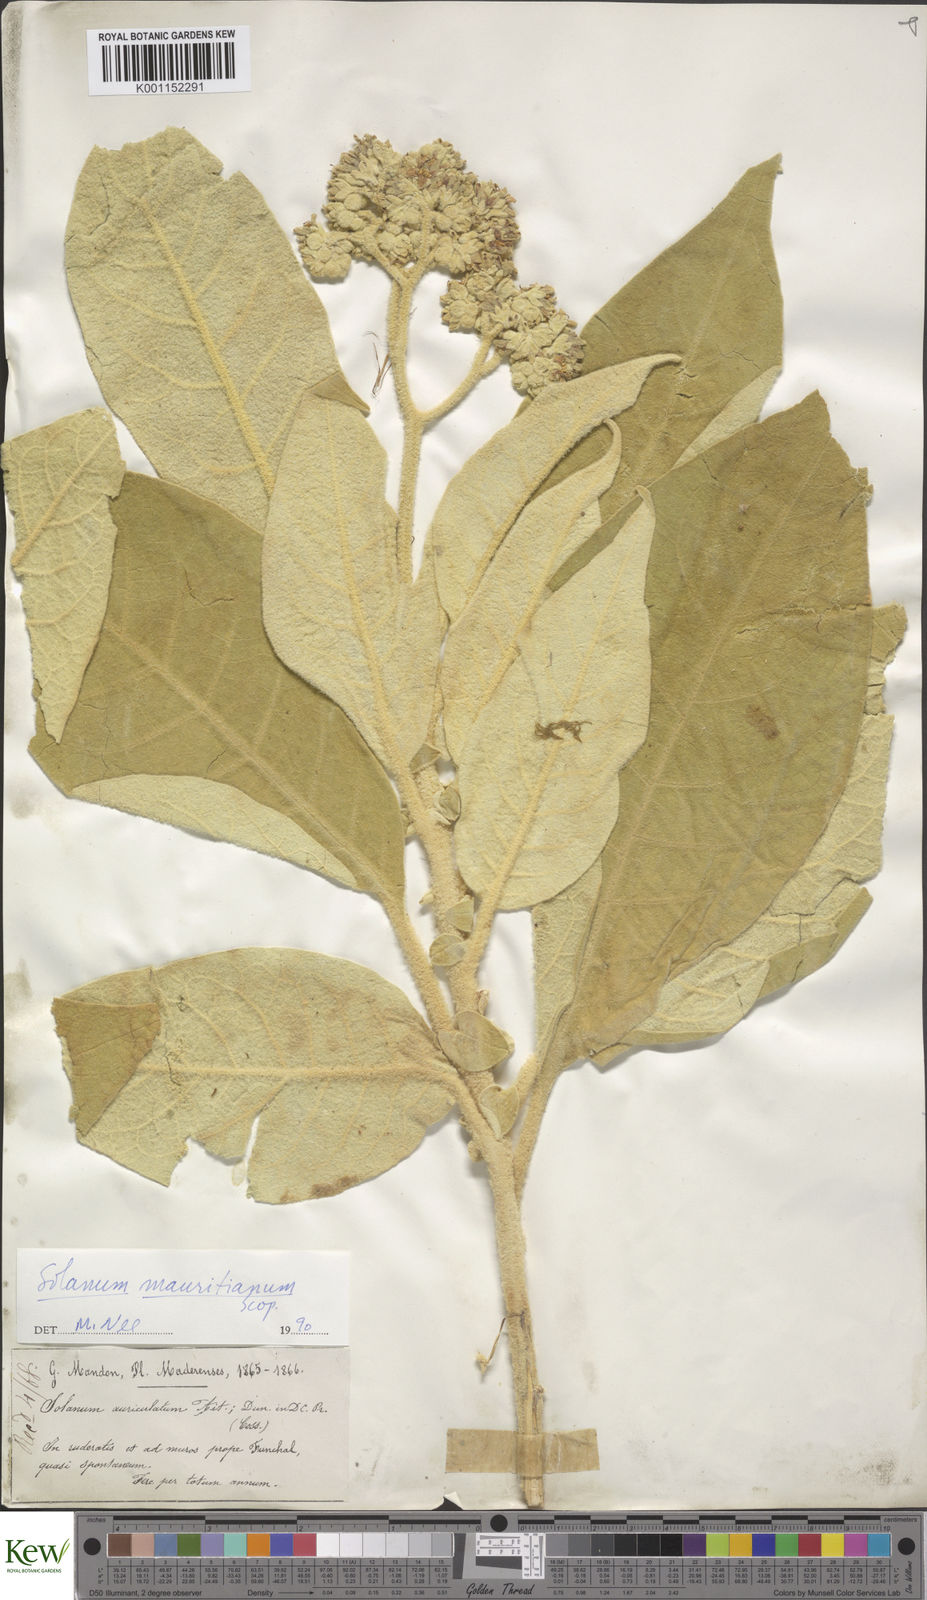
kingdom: Plantae
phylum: Tracheophyta
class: Magnoliopsida
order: Solanales
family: Solanaceae
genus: Solanum
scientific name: Solanum mauritianum
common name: Earleaf nightshade
